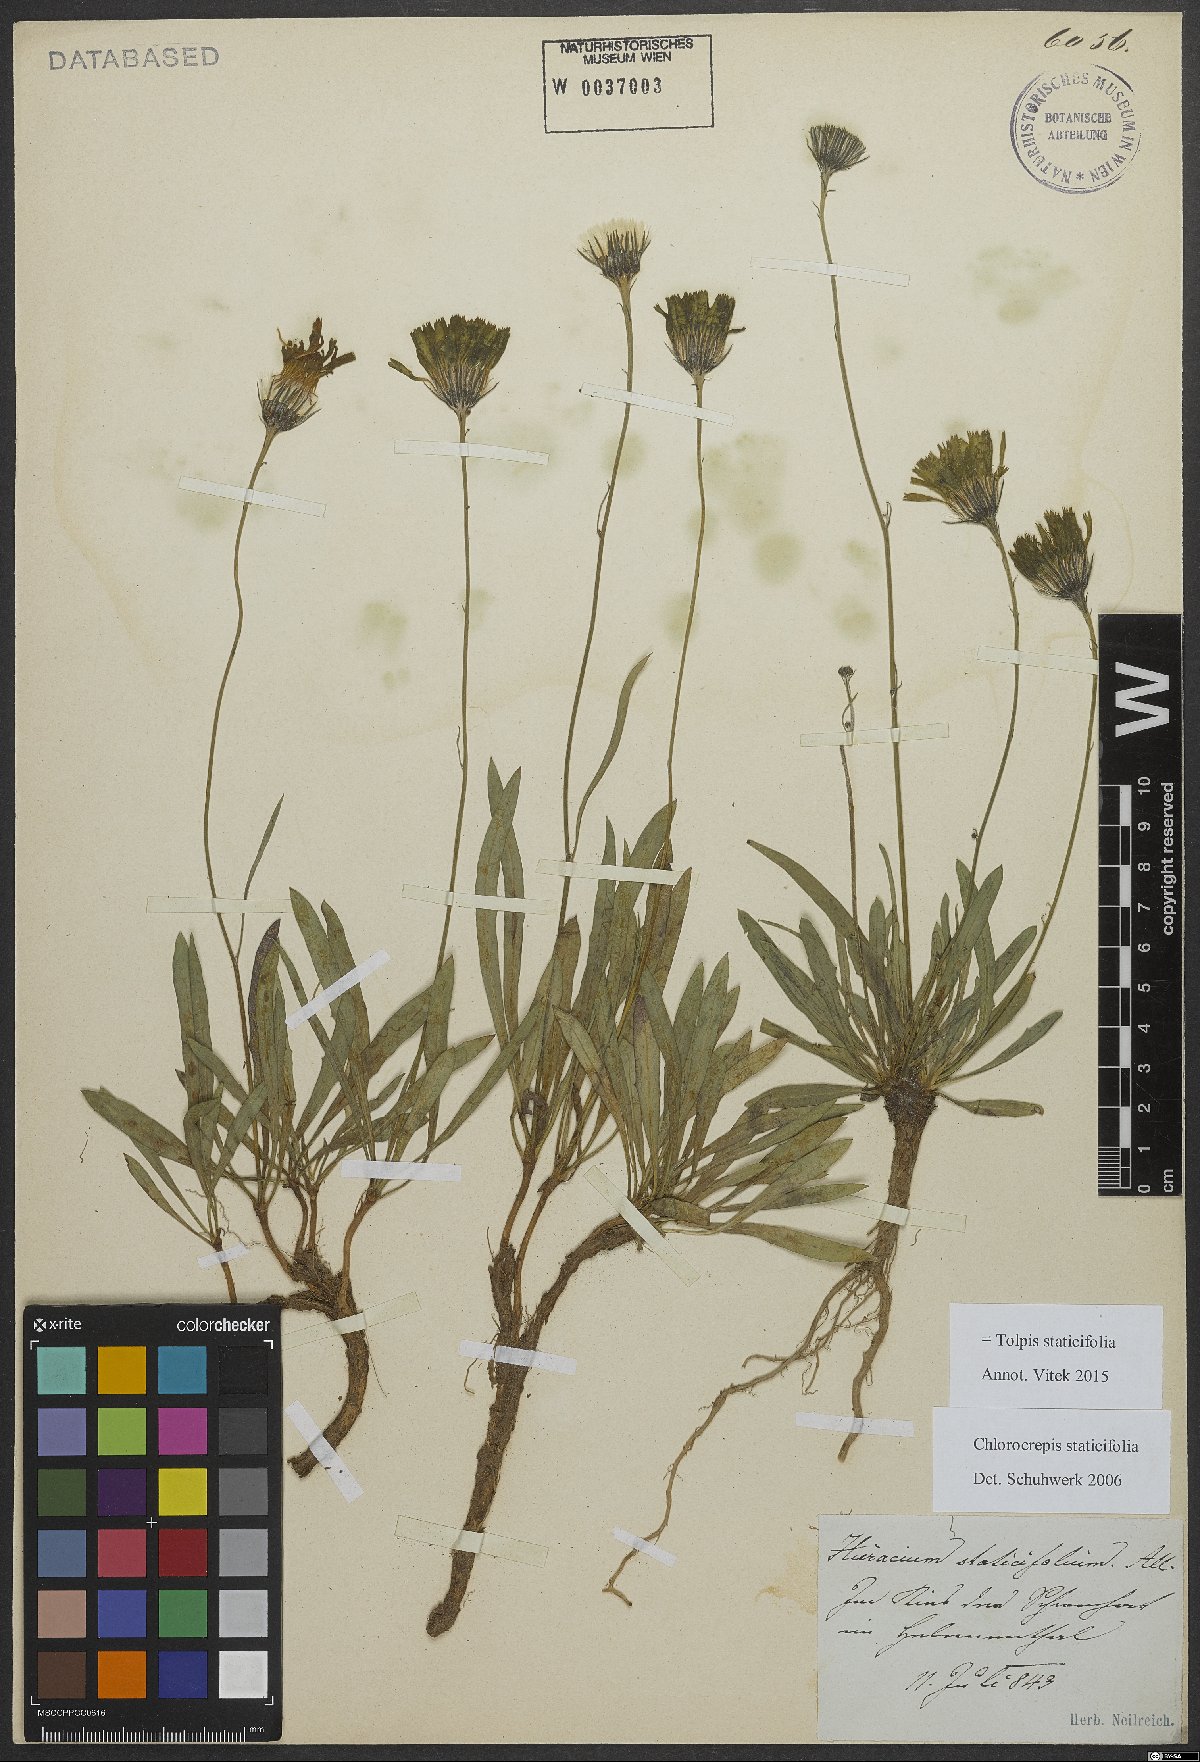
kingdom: Plantae
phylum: Tracheophyta
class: Magnoliopsida
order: Asterales
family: Asteraceae
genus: Tolpis
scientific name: Tolpis staticifolia
